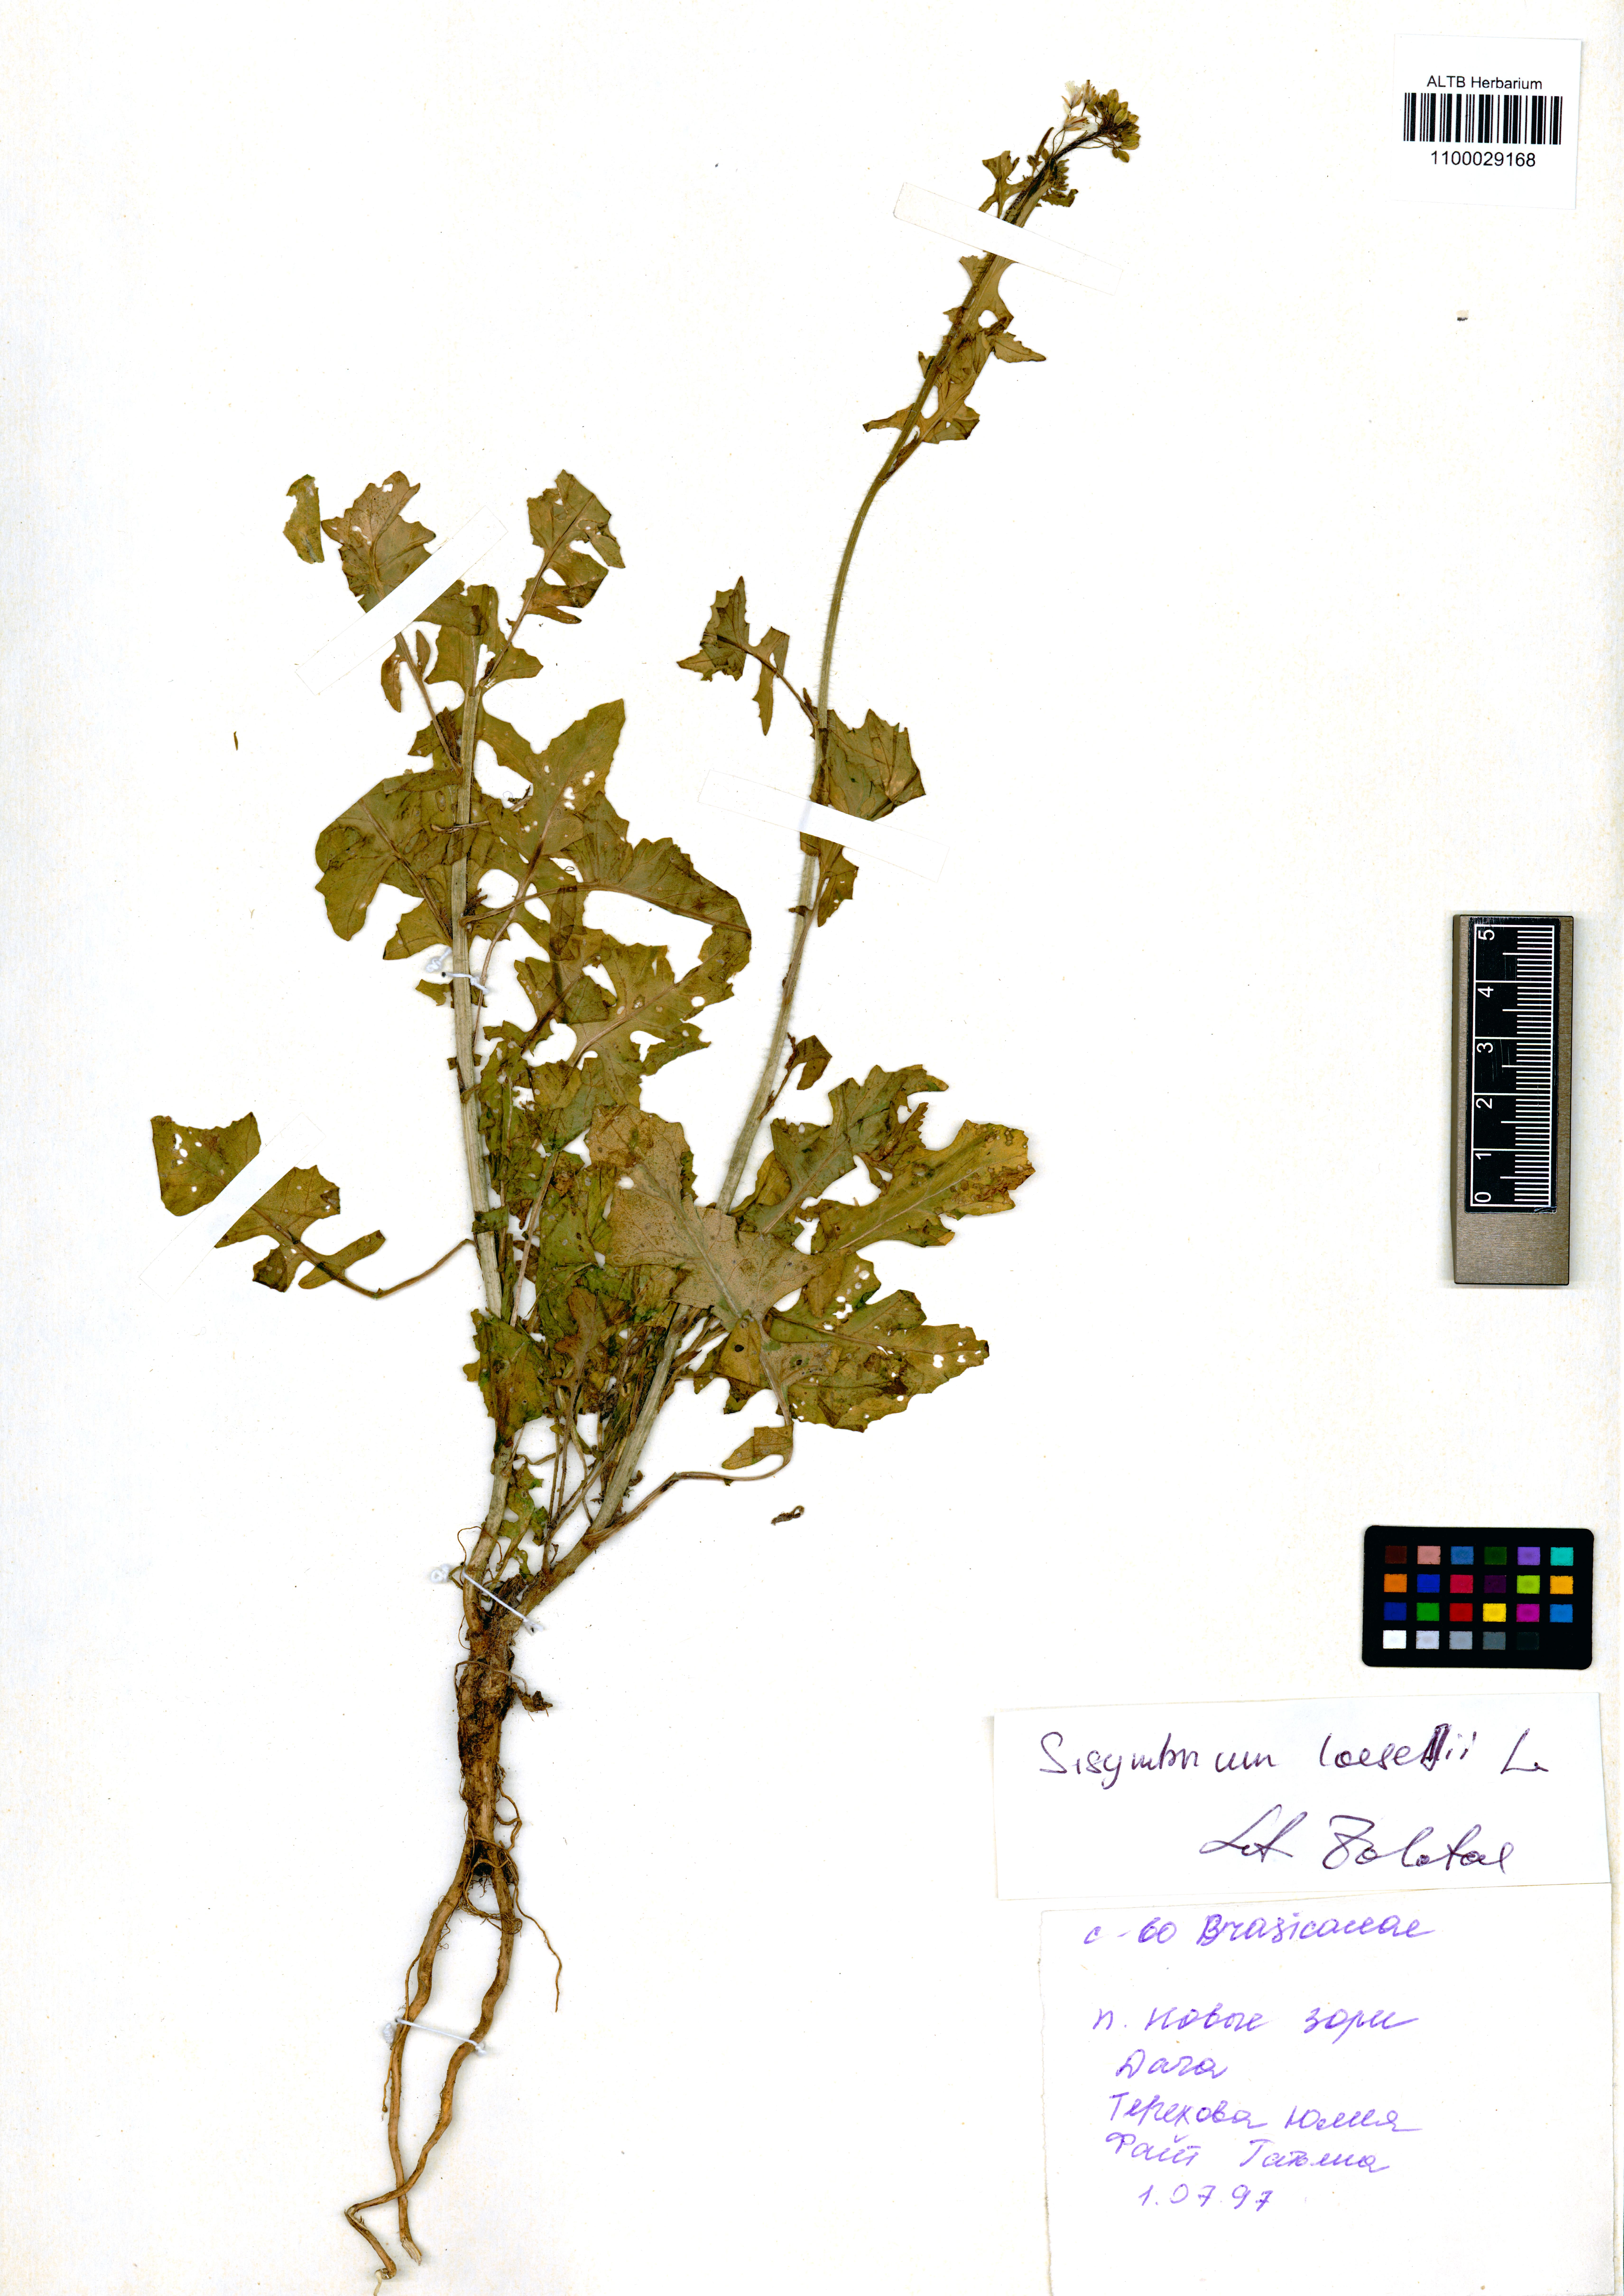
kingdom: Plantae
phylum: Tracheophyta
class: Magnoliopsida
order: Brassicales
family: Brassicaceae
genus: Sisymbrium
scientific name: Sisymbrium loeselii
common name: False london-rocket
